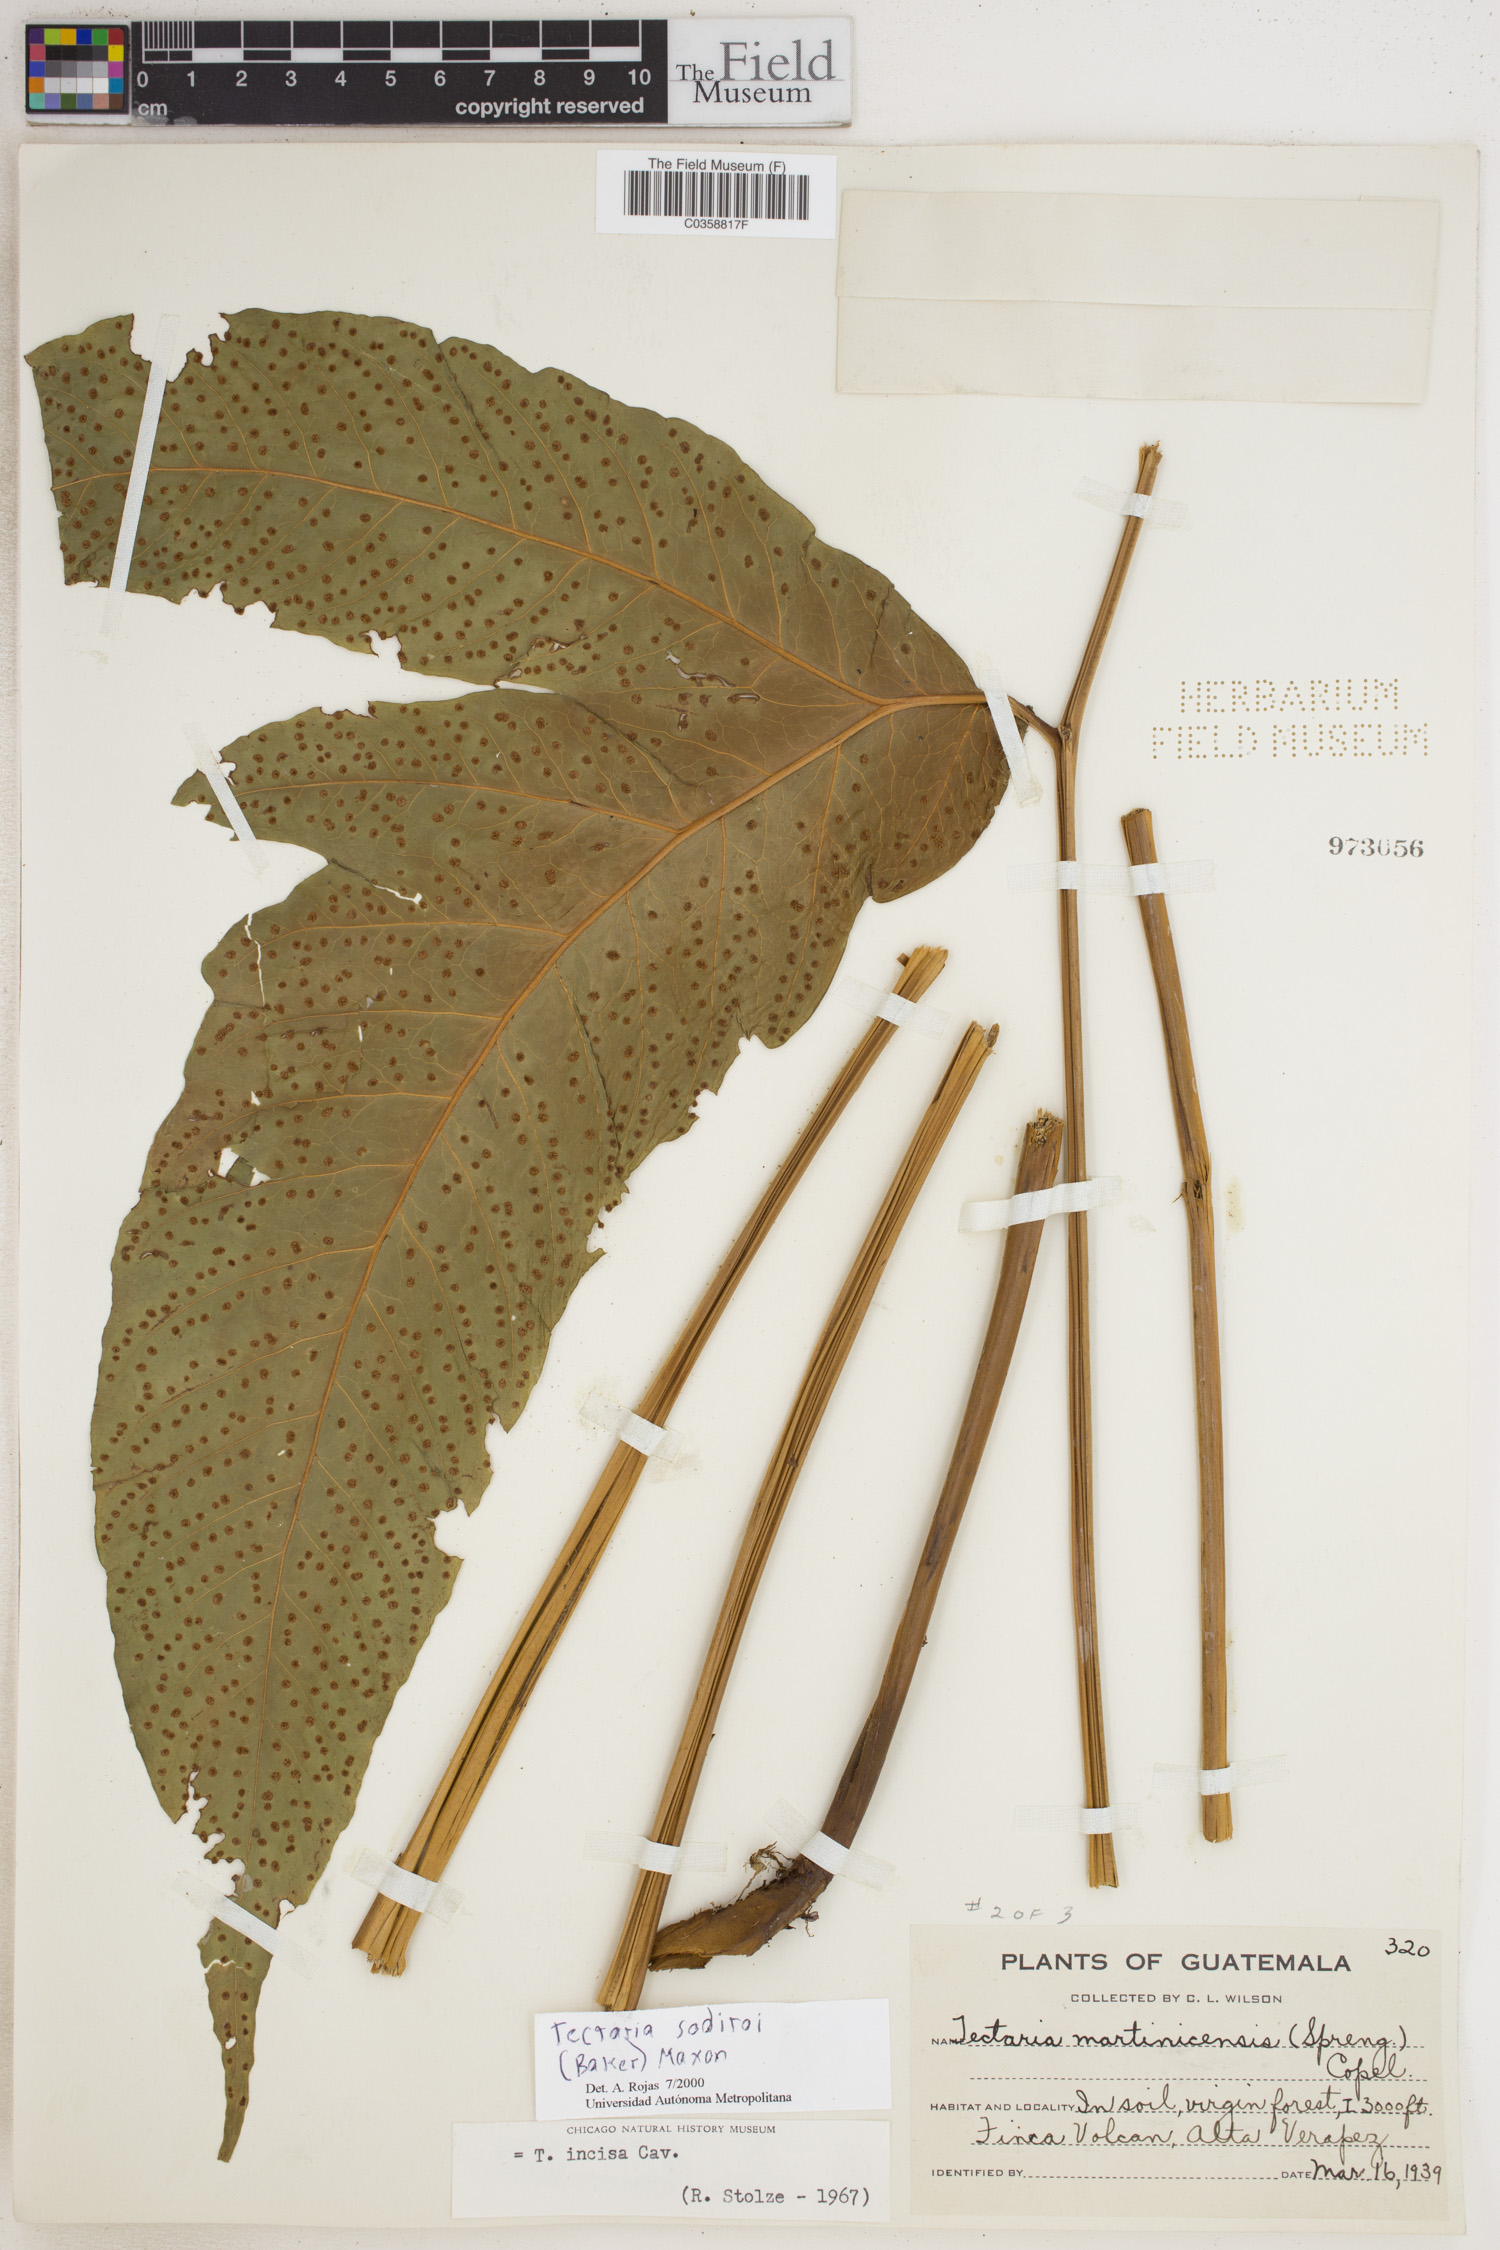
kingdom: Plantae
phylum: Tracheophyta
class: Polypodiopsida
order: Polypodiales
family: Dryopteridaceae
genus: Mickelia
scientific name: Mickelia nicotianifolia
